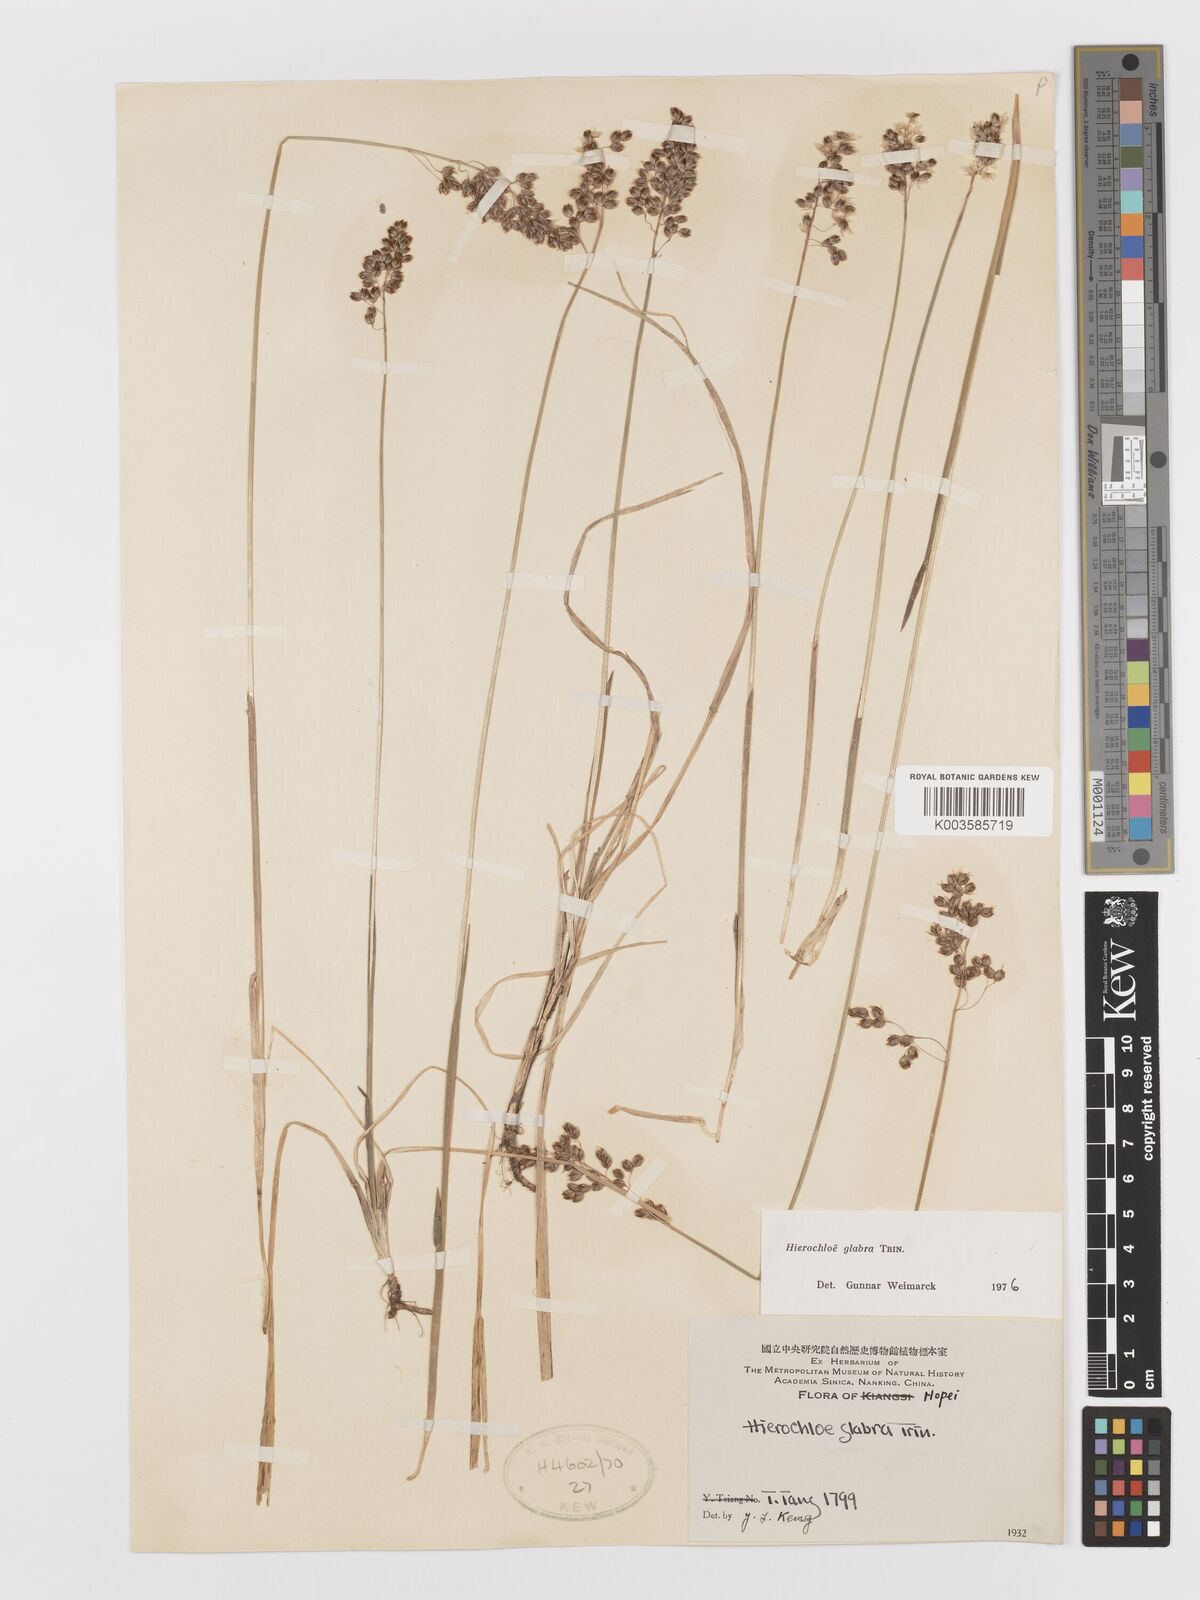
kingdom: Plantae
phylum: Tracheophyta
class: Liliopsida
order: Poales
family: Poaceae
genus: Anthoxanthum
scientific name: Anthoxanthum glabrum
